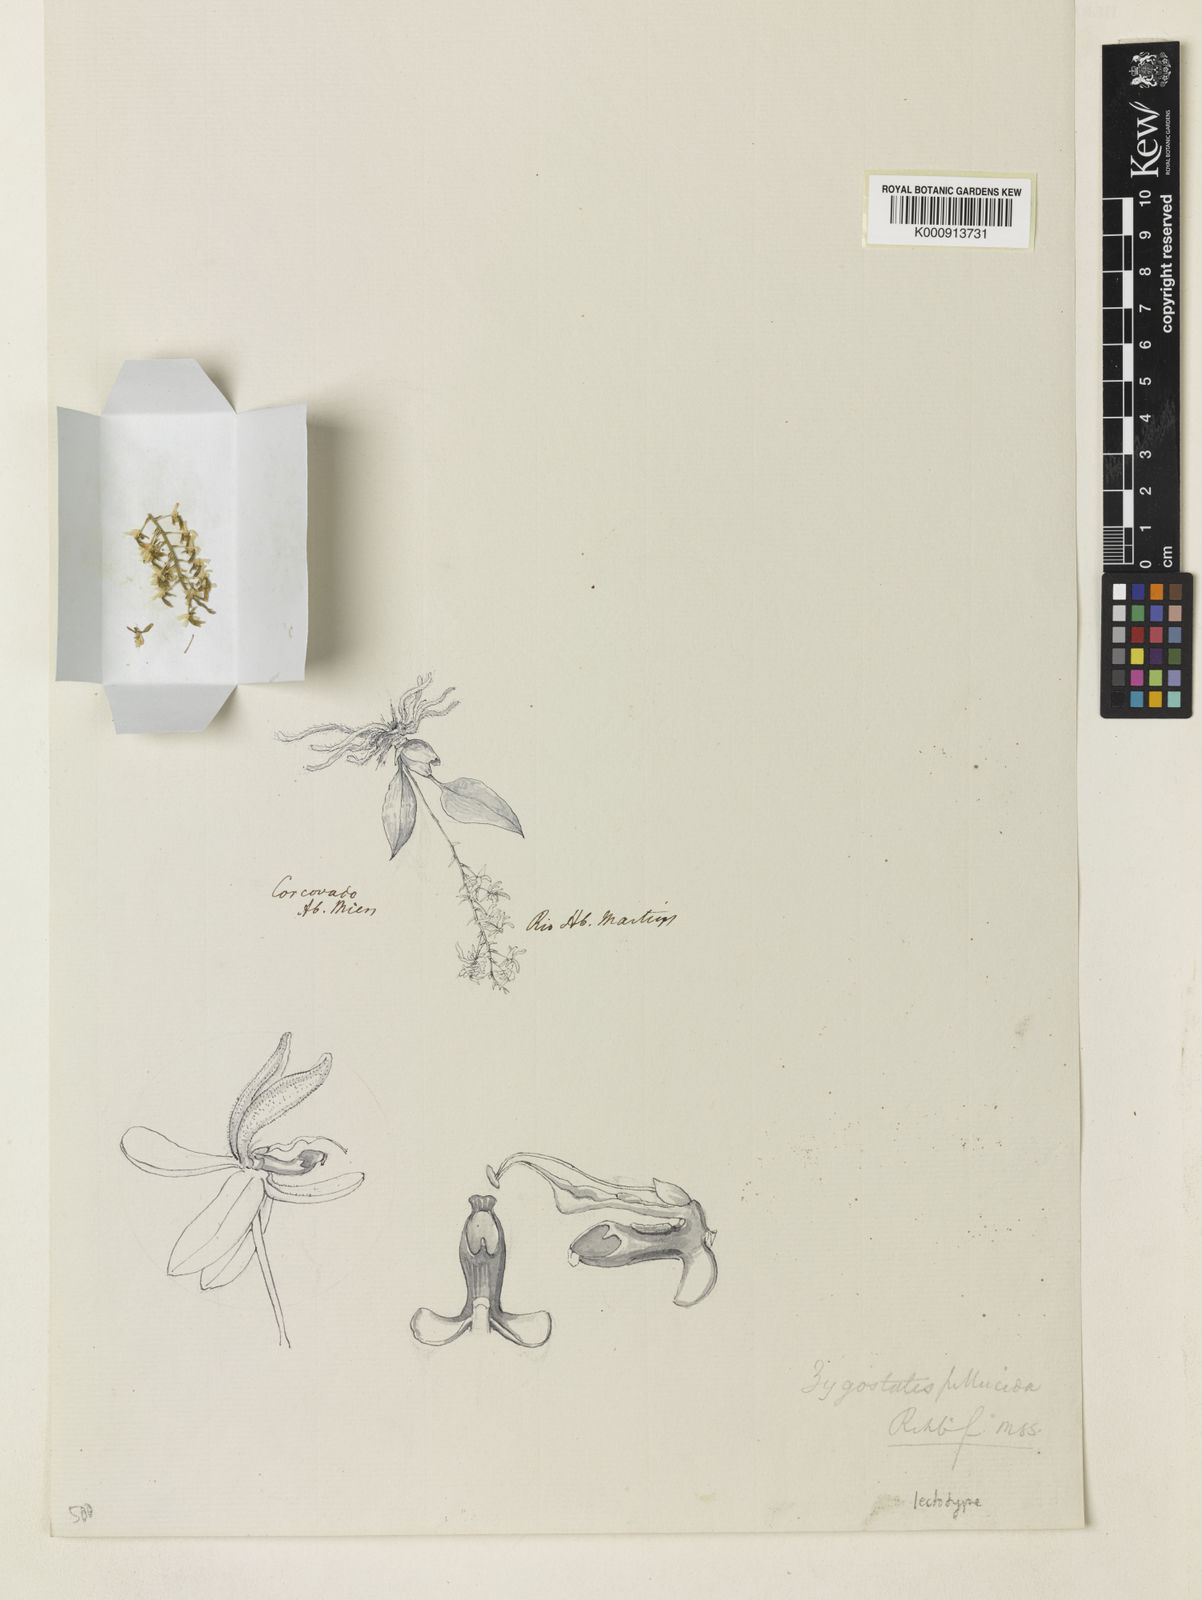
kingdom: Plantae
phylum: Tracheophyta
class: Liliopsida
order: Asparagales
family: Orchidaceae
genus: Zygostates
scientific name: Zygostates pellucida
